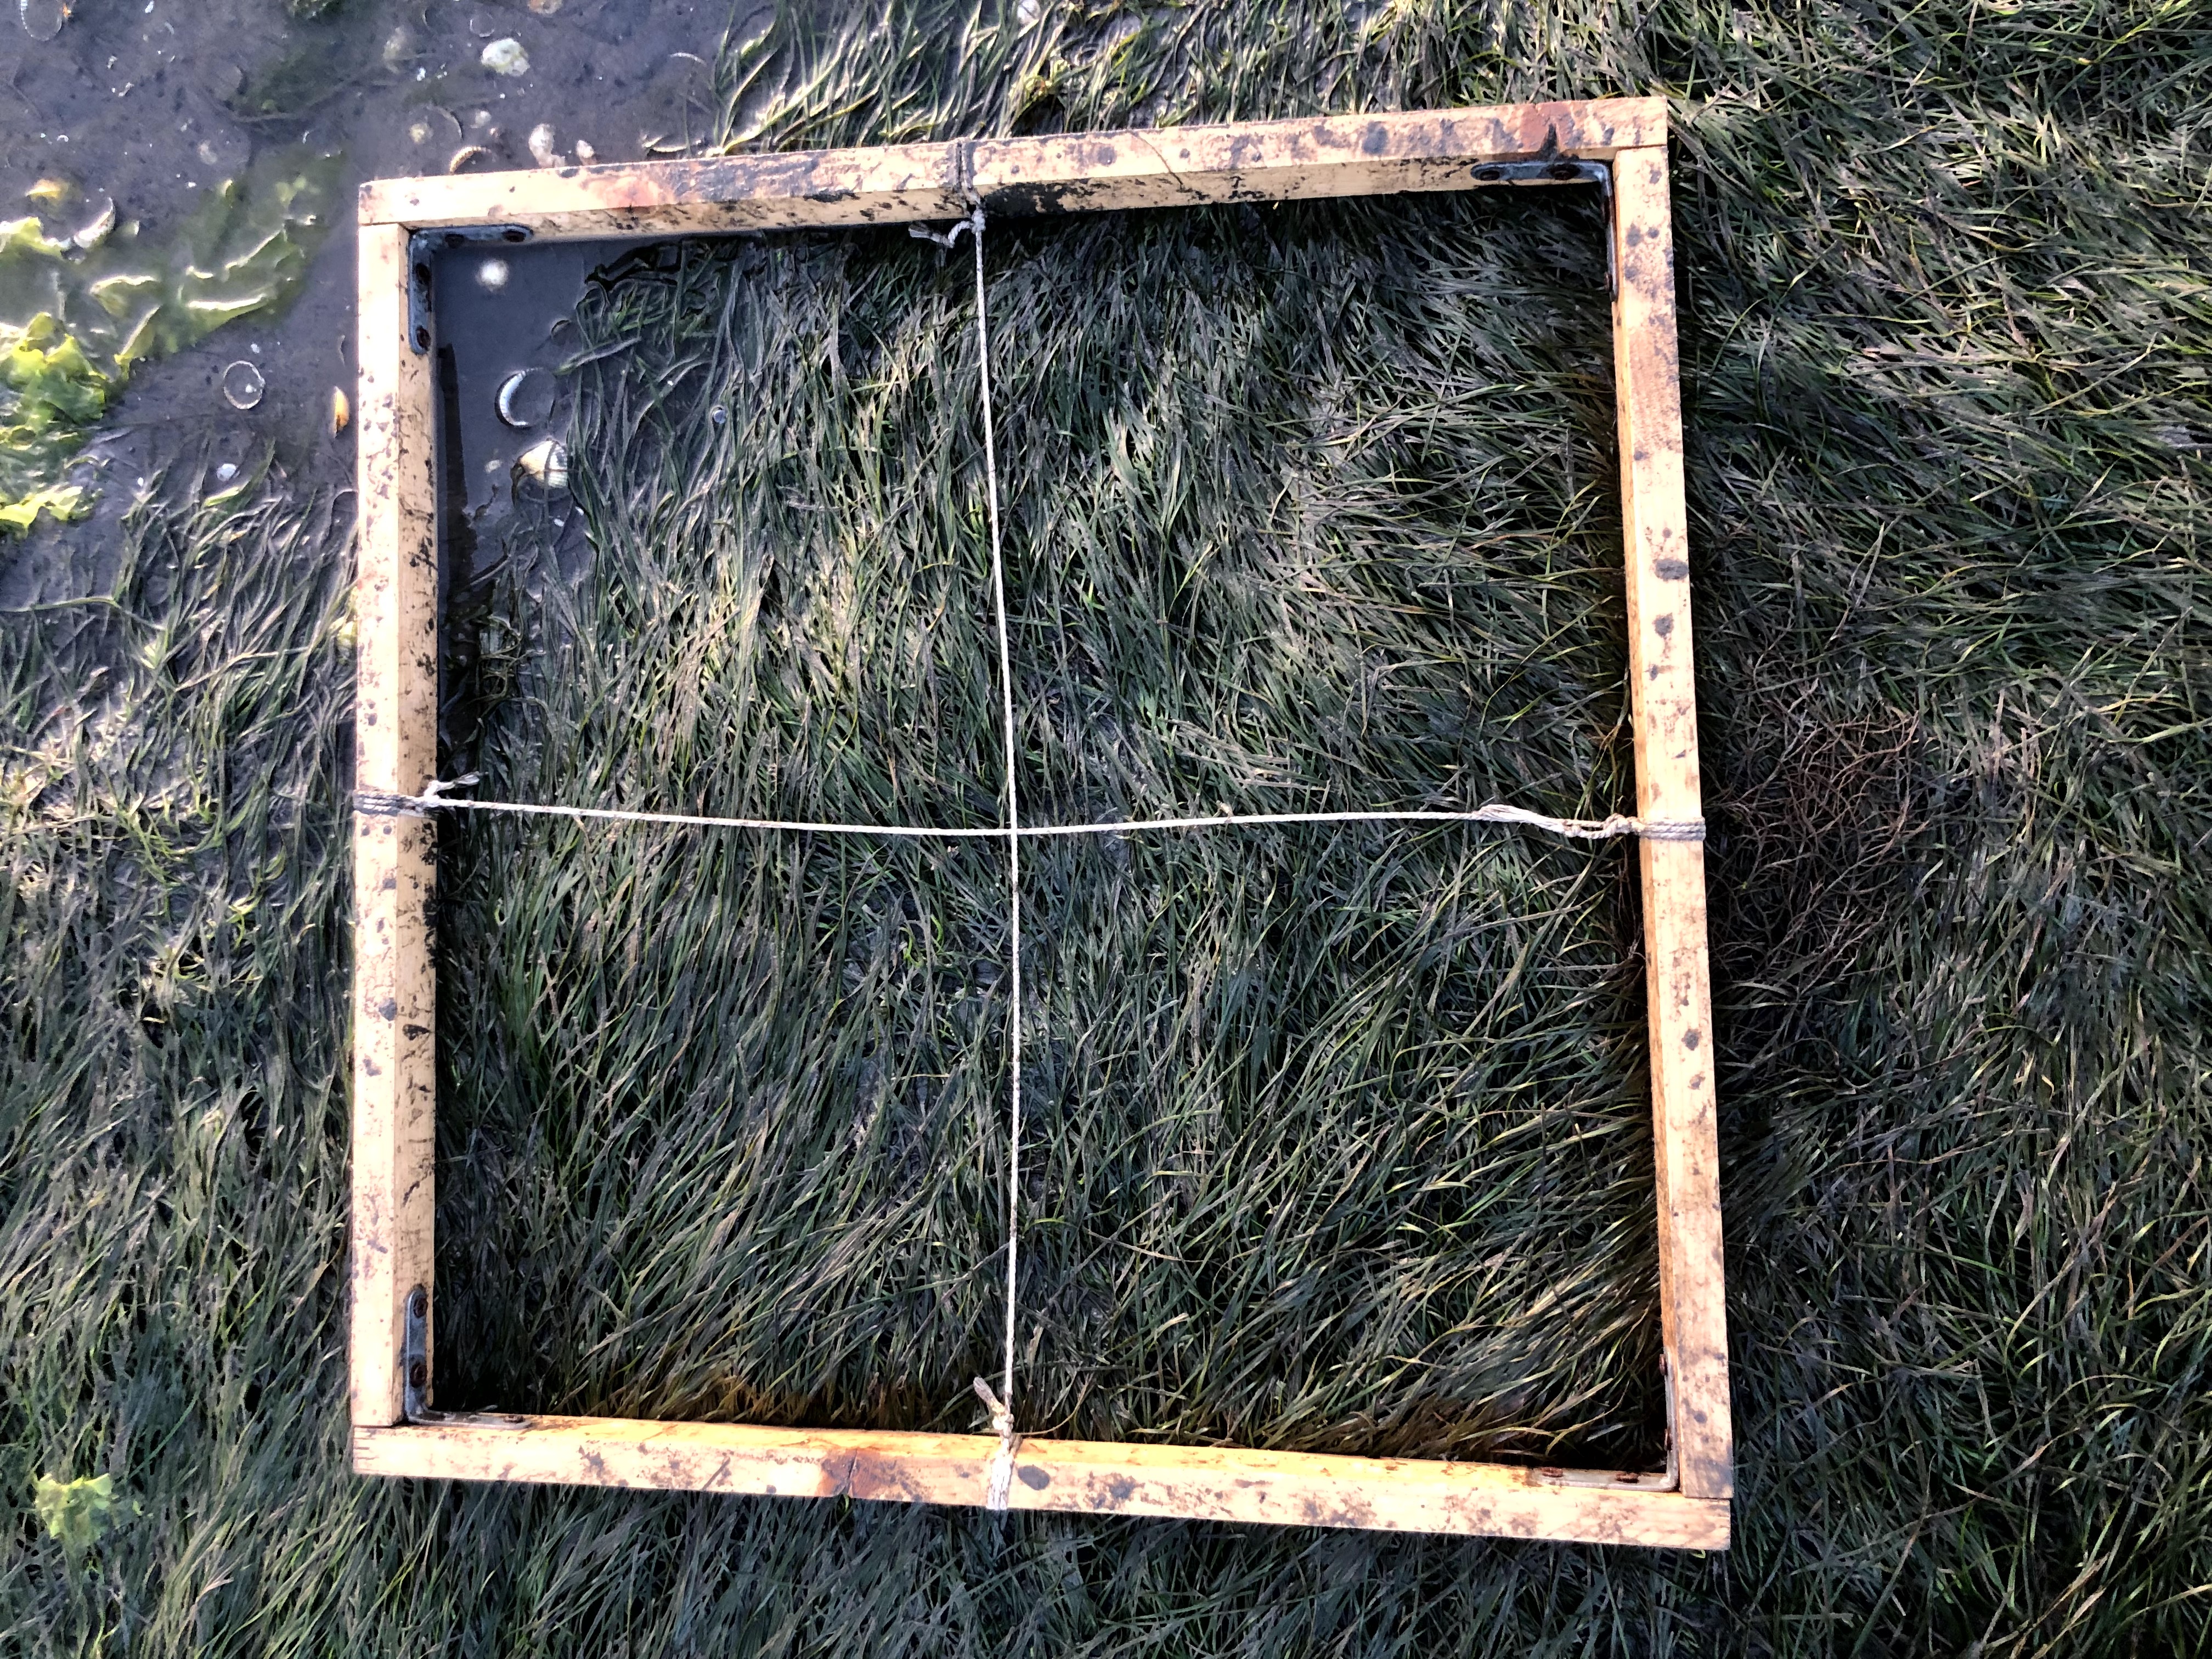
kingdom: Plantae
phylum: Tracheophyta
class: Liliopsida
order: Alismatales
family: Zosteraceae
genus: Zostera
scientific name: Zostera noltii
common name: Dwarf eelgrass
